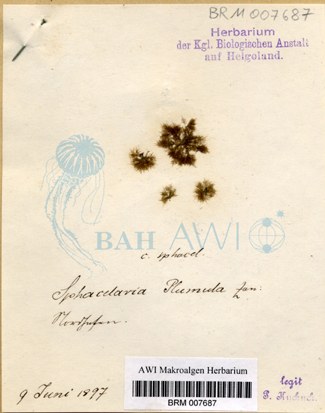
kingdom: Chromista
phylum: Ochrophyta
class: Phaeophyceae
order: Sphacelariales
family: Sphacelariaceae
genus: Sphacelaria
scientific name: Sphacelaria plumula
